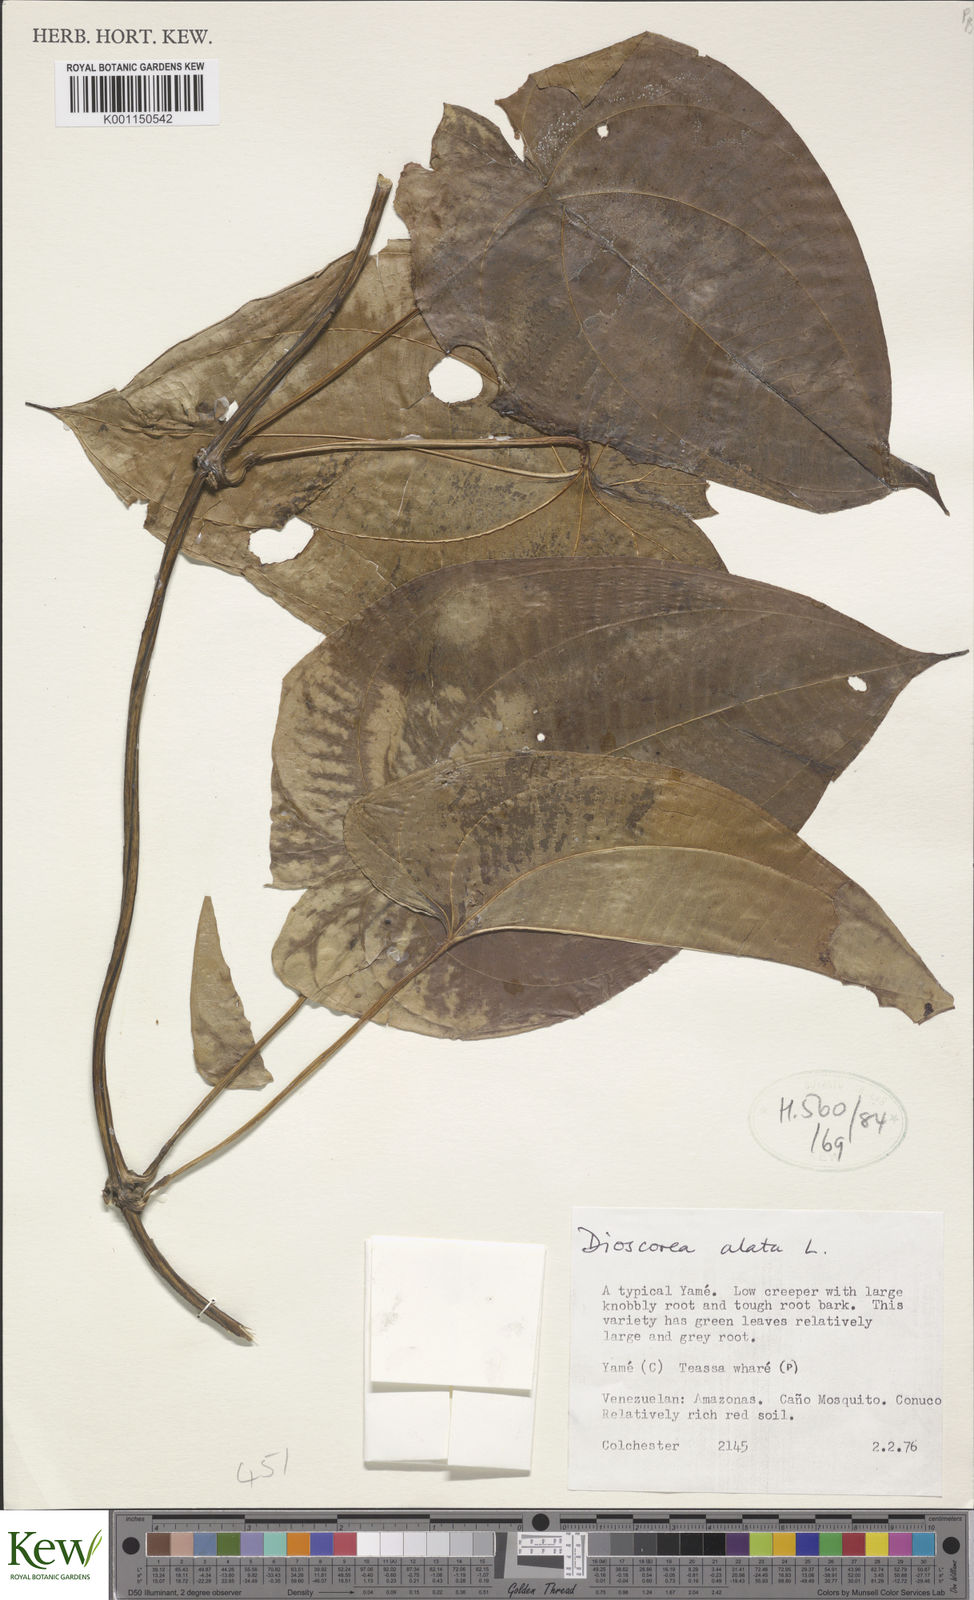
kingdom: Plantae
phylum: Tracheophyta
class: Liliopsida
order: Dioscoreales
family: Dioscoreaceae
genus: Dioscorea
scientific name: Dioscorea alata
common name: Water yam
